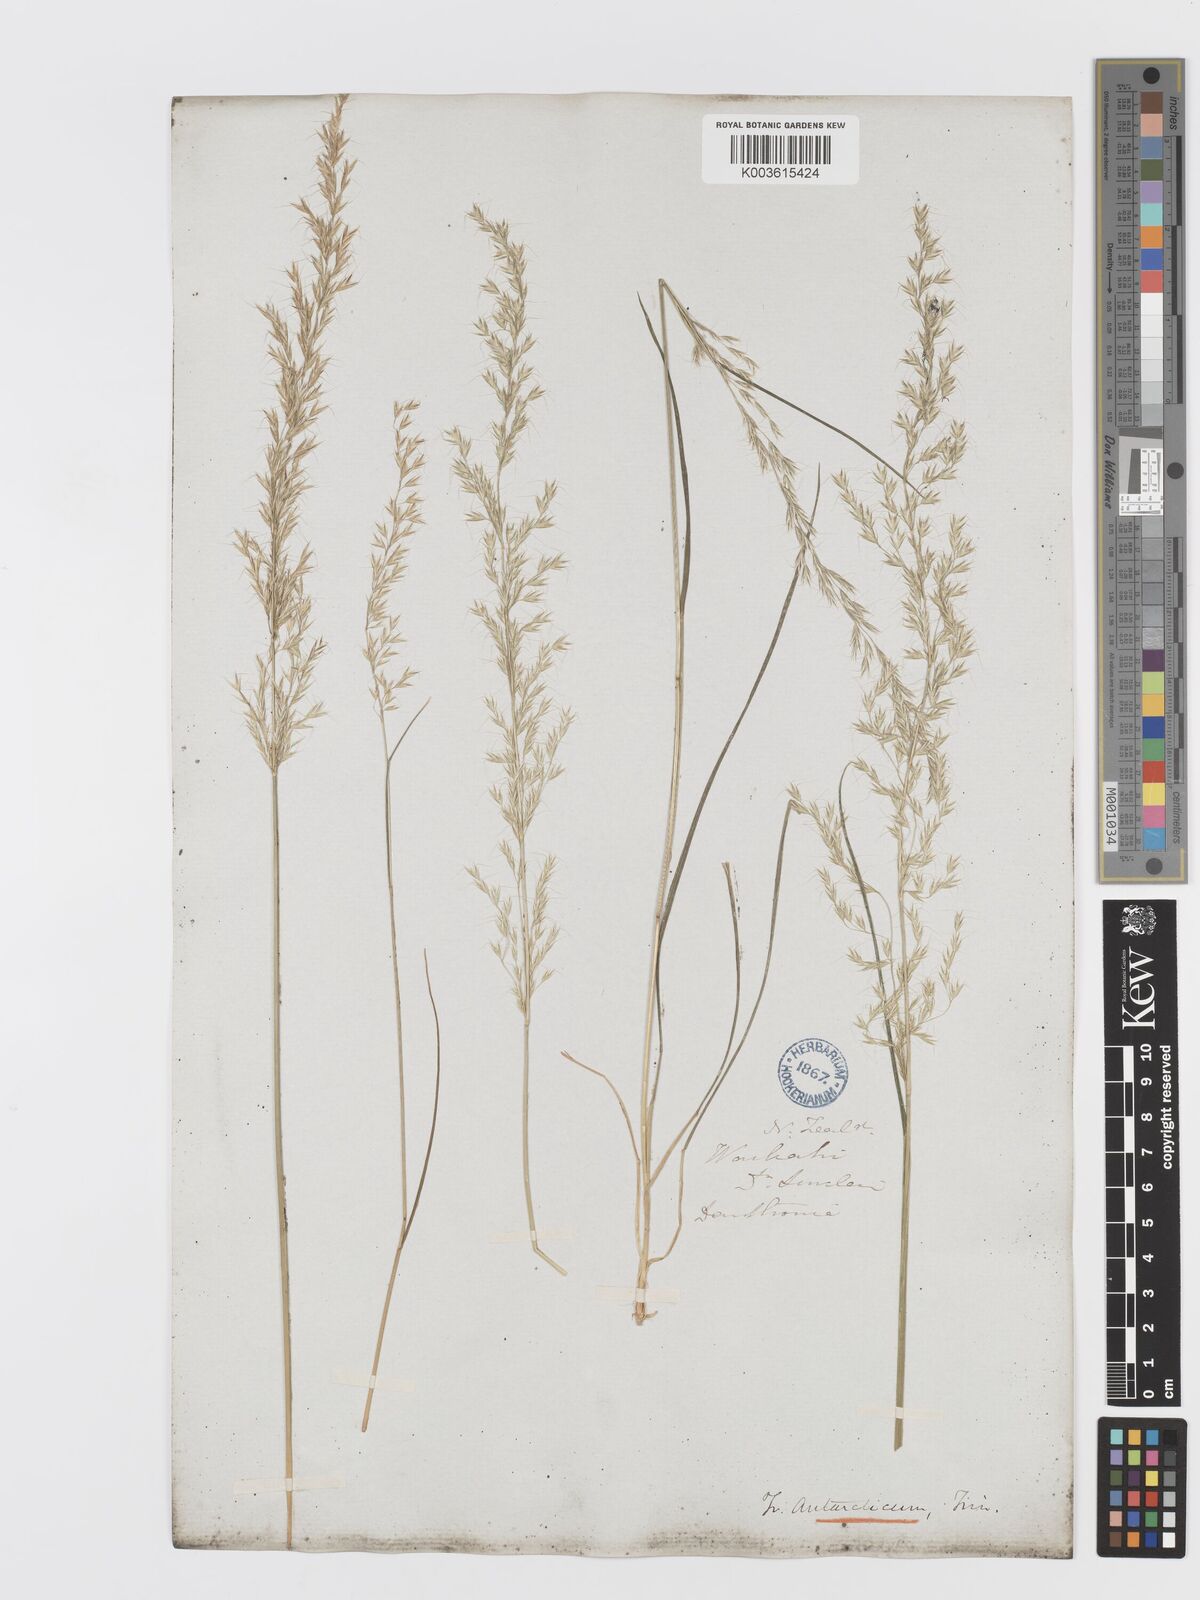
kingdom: Plantae
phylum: Tracheophyta
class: Liliopsida
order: Poales
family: Poaceae
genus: Koeleria
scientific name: Koeleria antarctica
